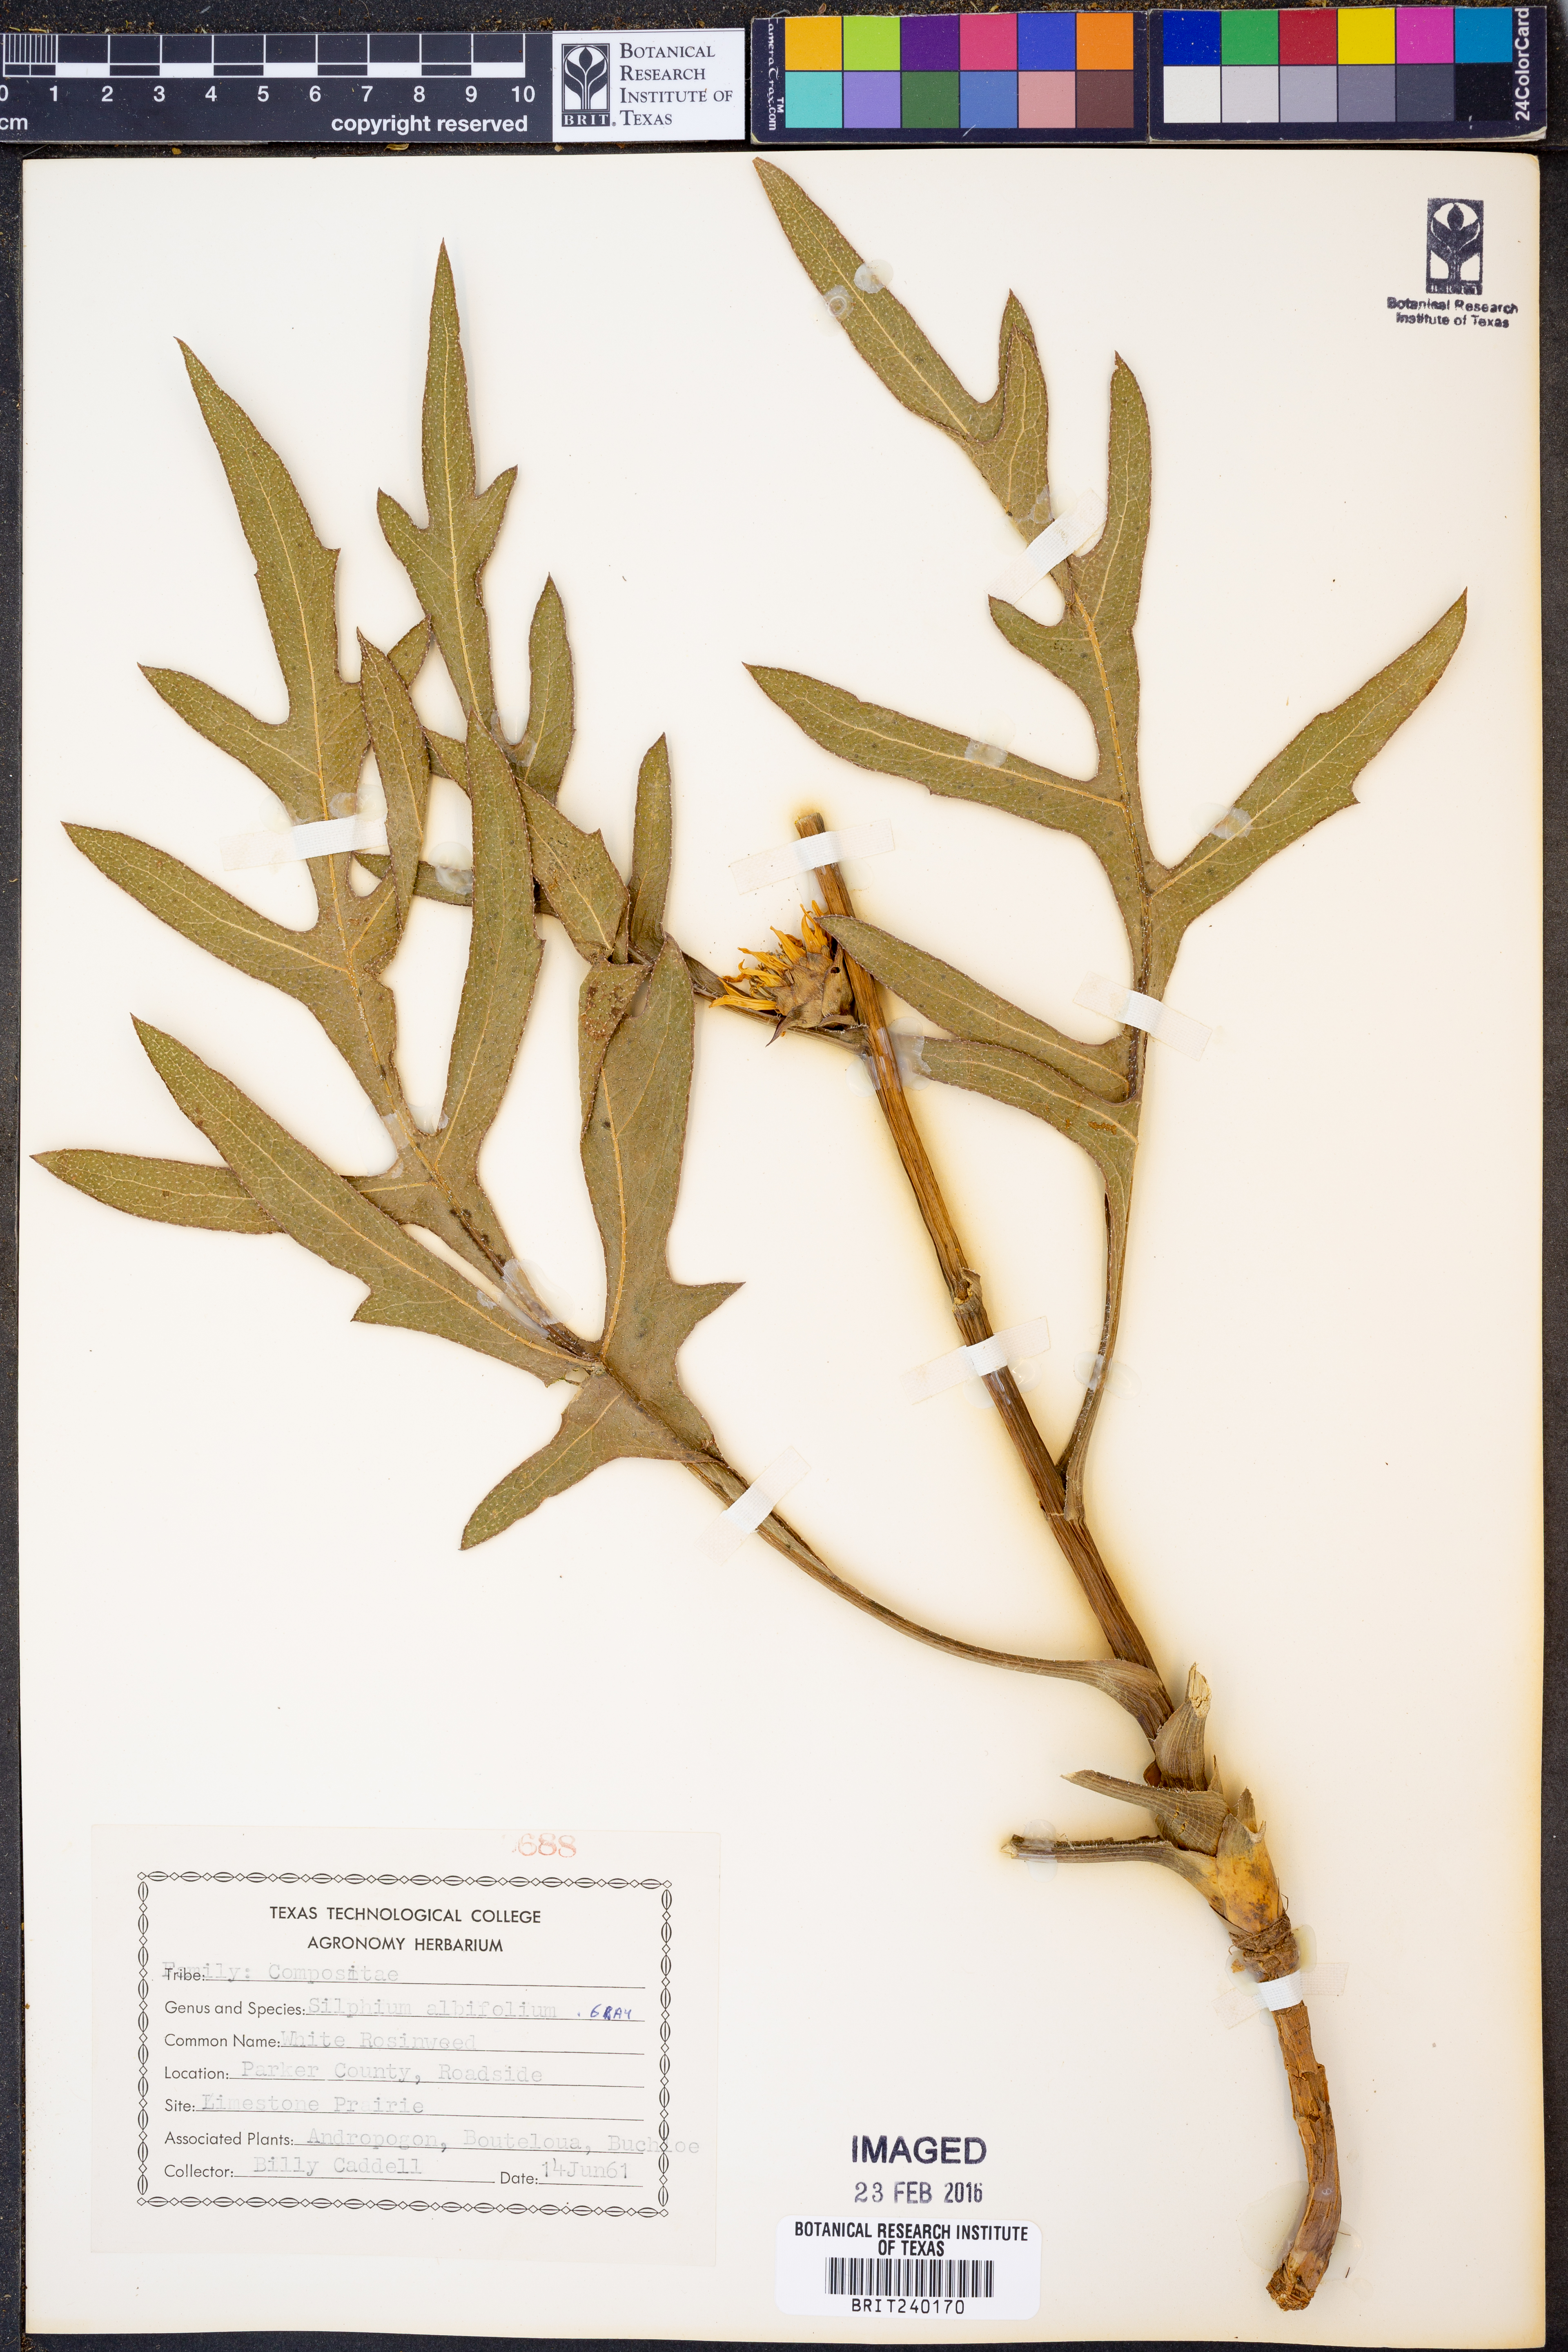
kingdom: Plantae
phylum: Tracheophyta
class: Magnoliopsida
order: Asterales
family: Asteraceae
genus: Silphium
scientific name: Silphium albiflorum
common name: White rosinweed
